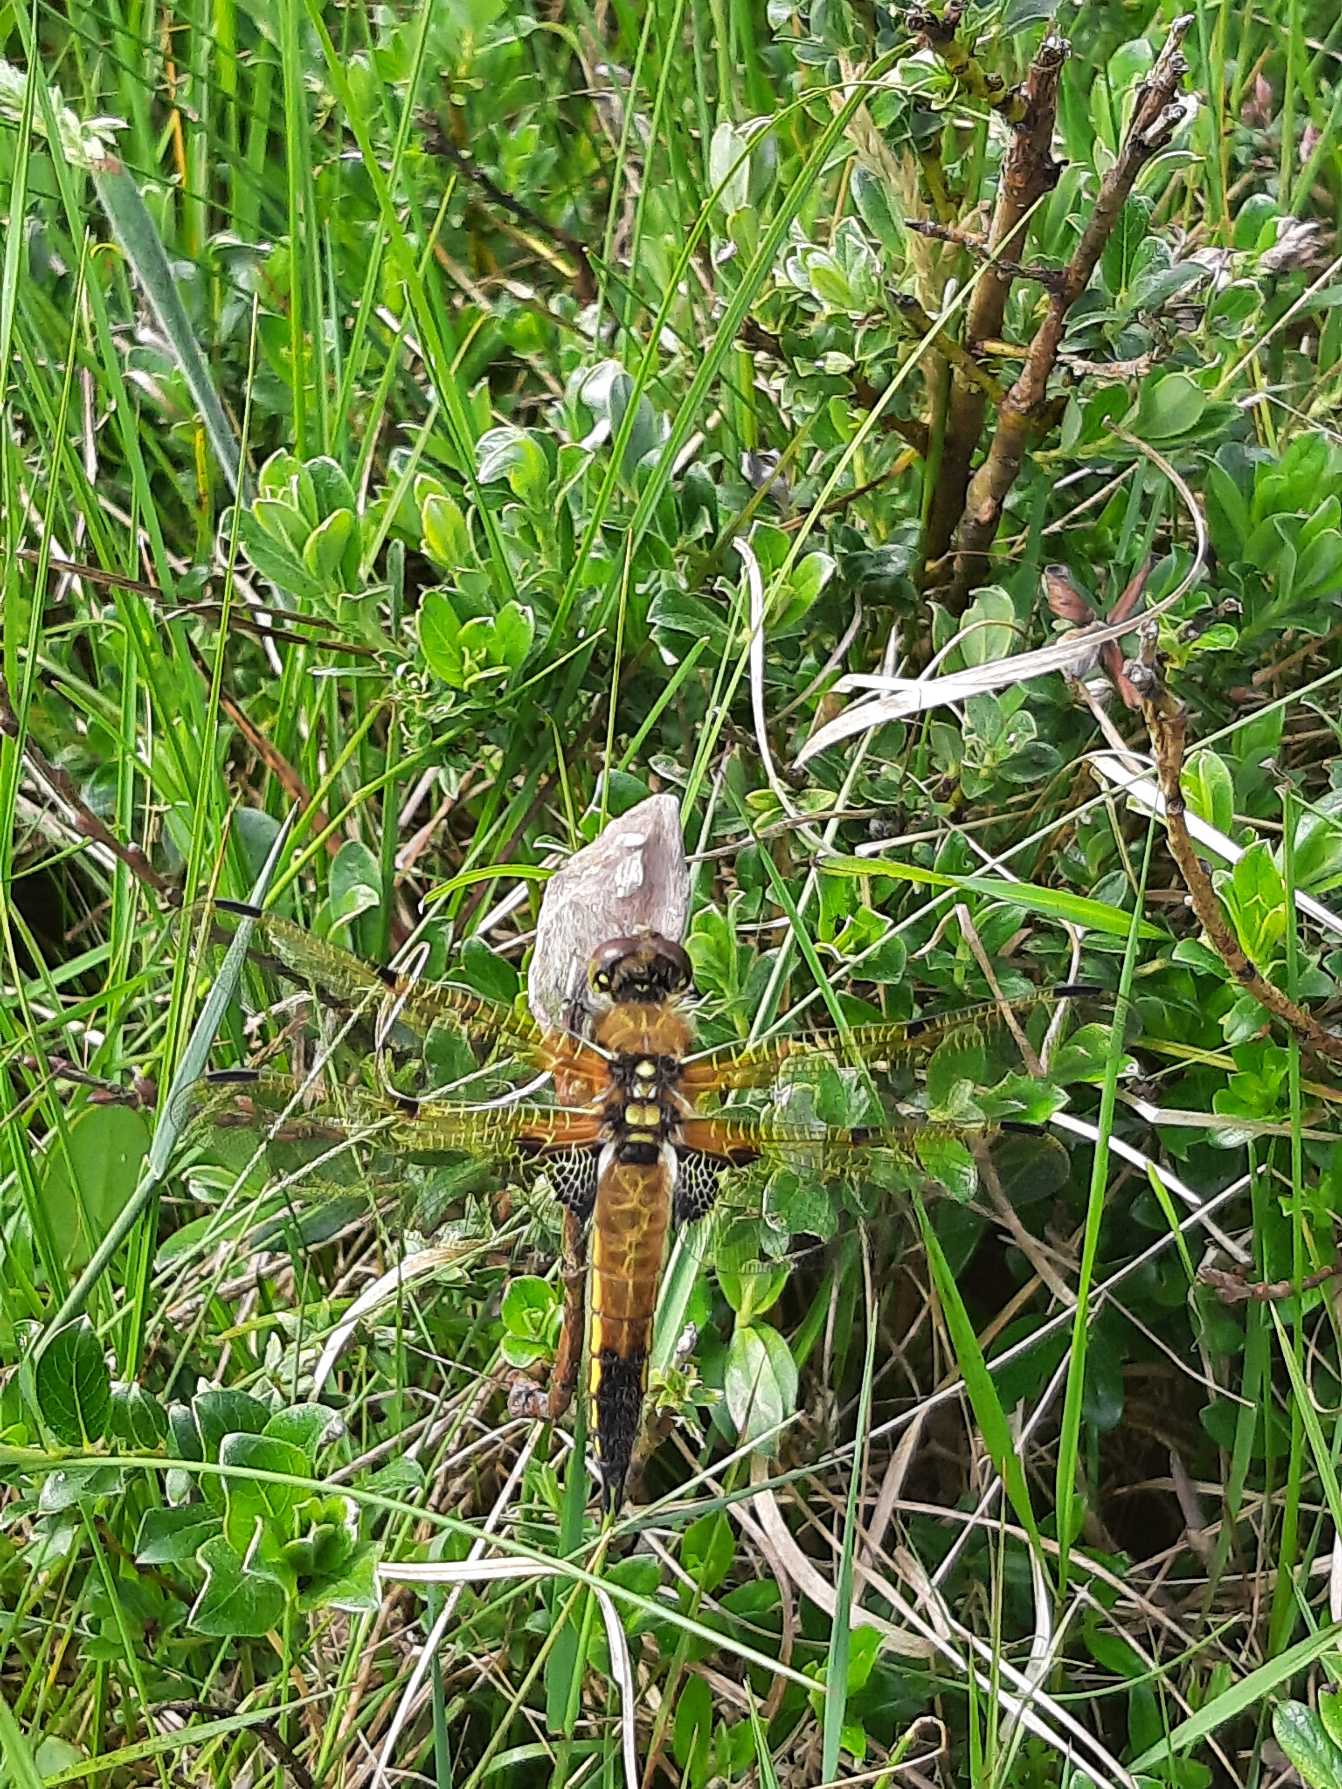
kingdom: Animalia
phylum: Arthropoda
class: Insecta
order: Odonata
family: Libellulidae
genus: Libellula
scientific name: Libellula quadrimaculata
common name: Fireplettet libel
